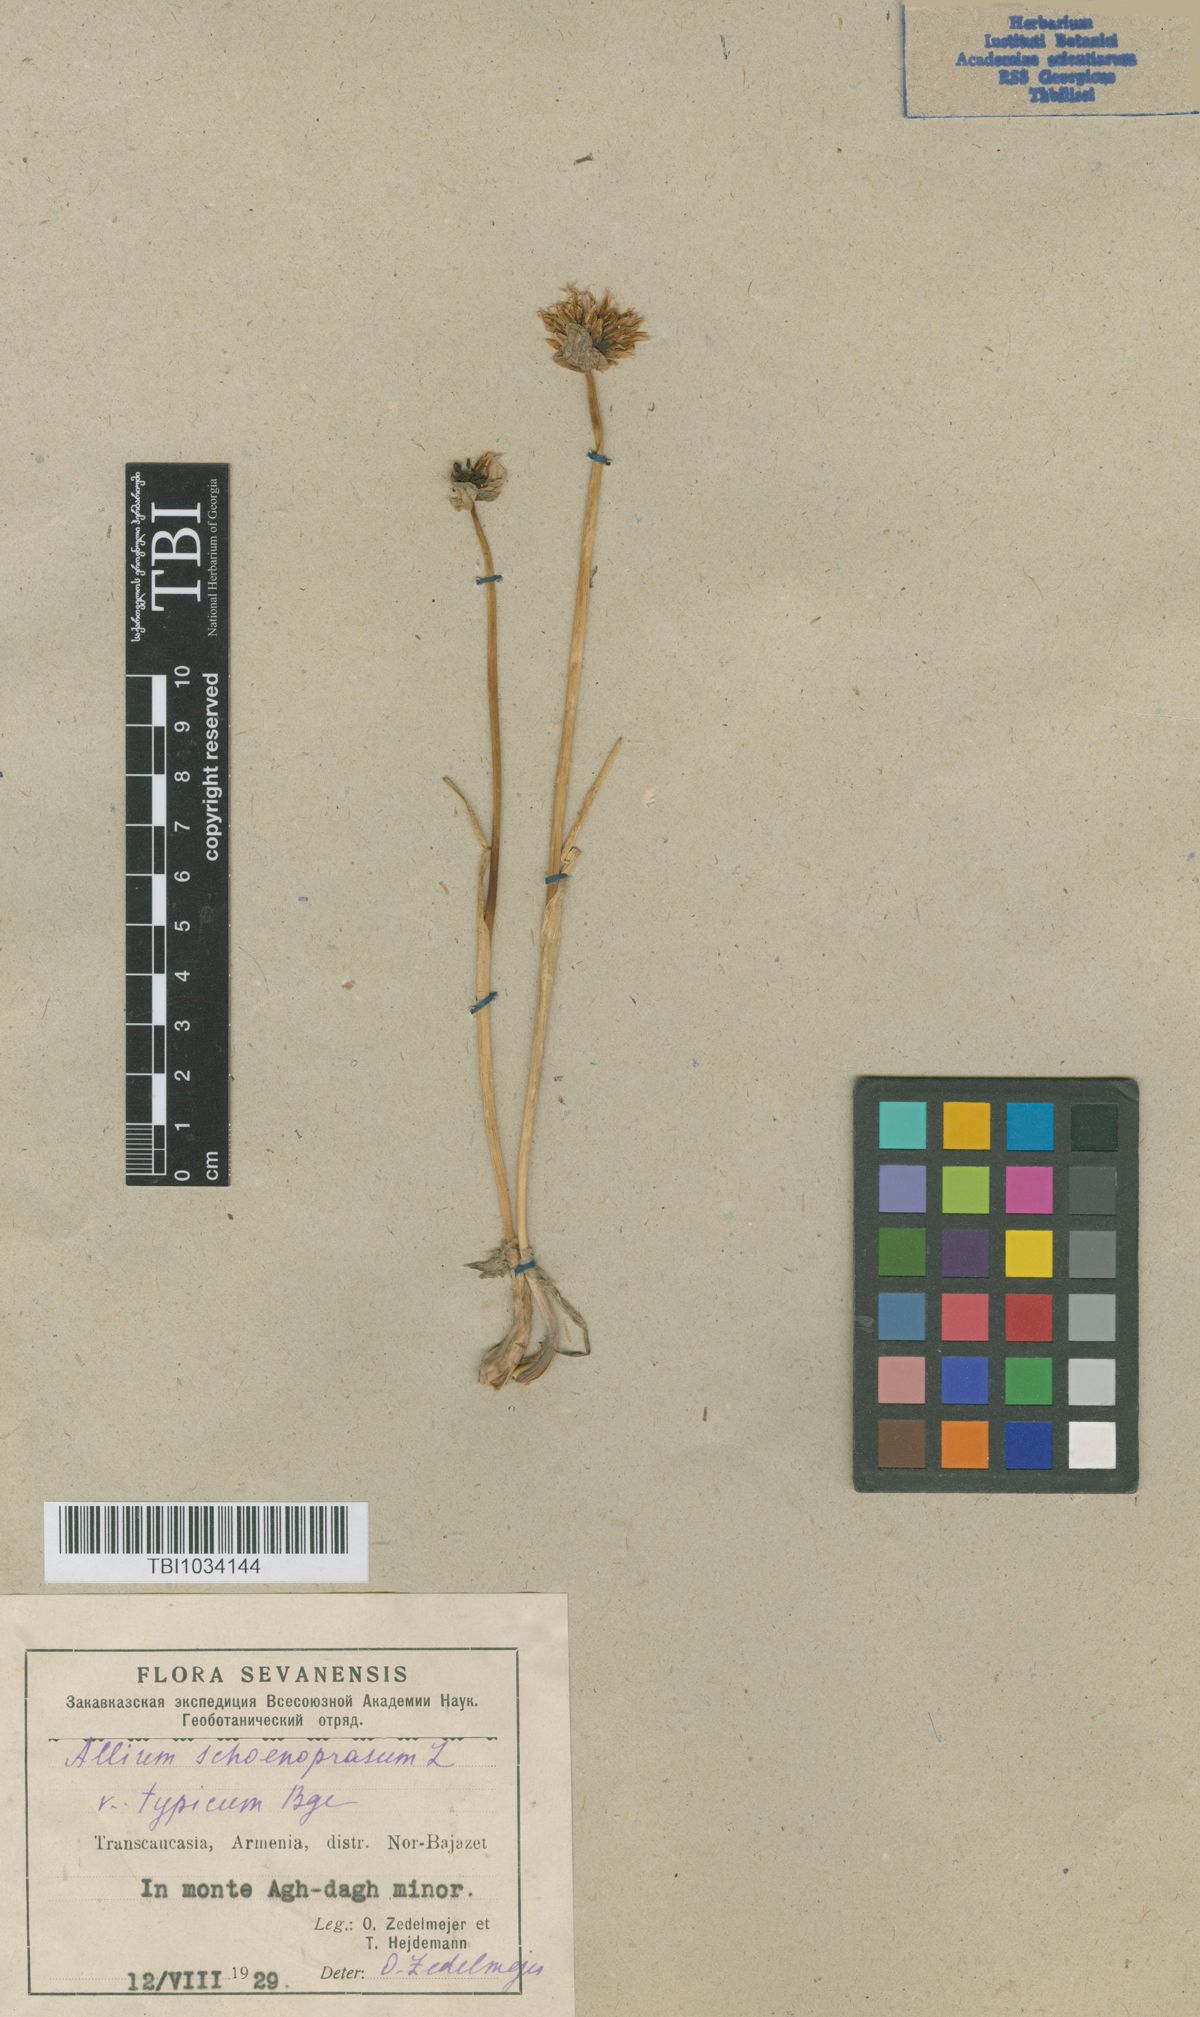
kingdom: Plantae
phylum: Tracheophyta
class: Liliopsida
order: Asparagales
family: Amaryllidaceae
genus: Allium
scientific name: Allium schoenoprasum
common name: Chives
